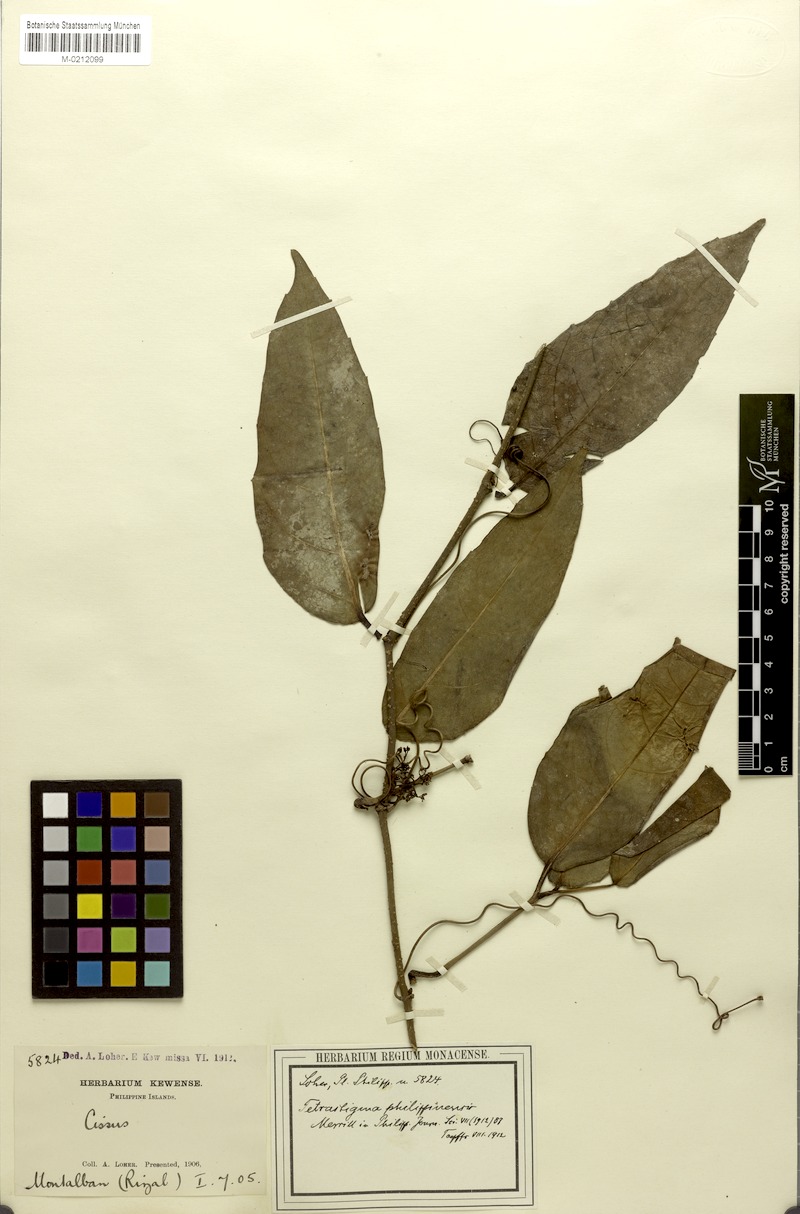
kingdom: Plantae
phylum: Tracheophyta
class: Magnoliopsida
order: Vitales
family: Vitaceae
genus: Tetrastigma
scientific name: Tetrastigma loheri
